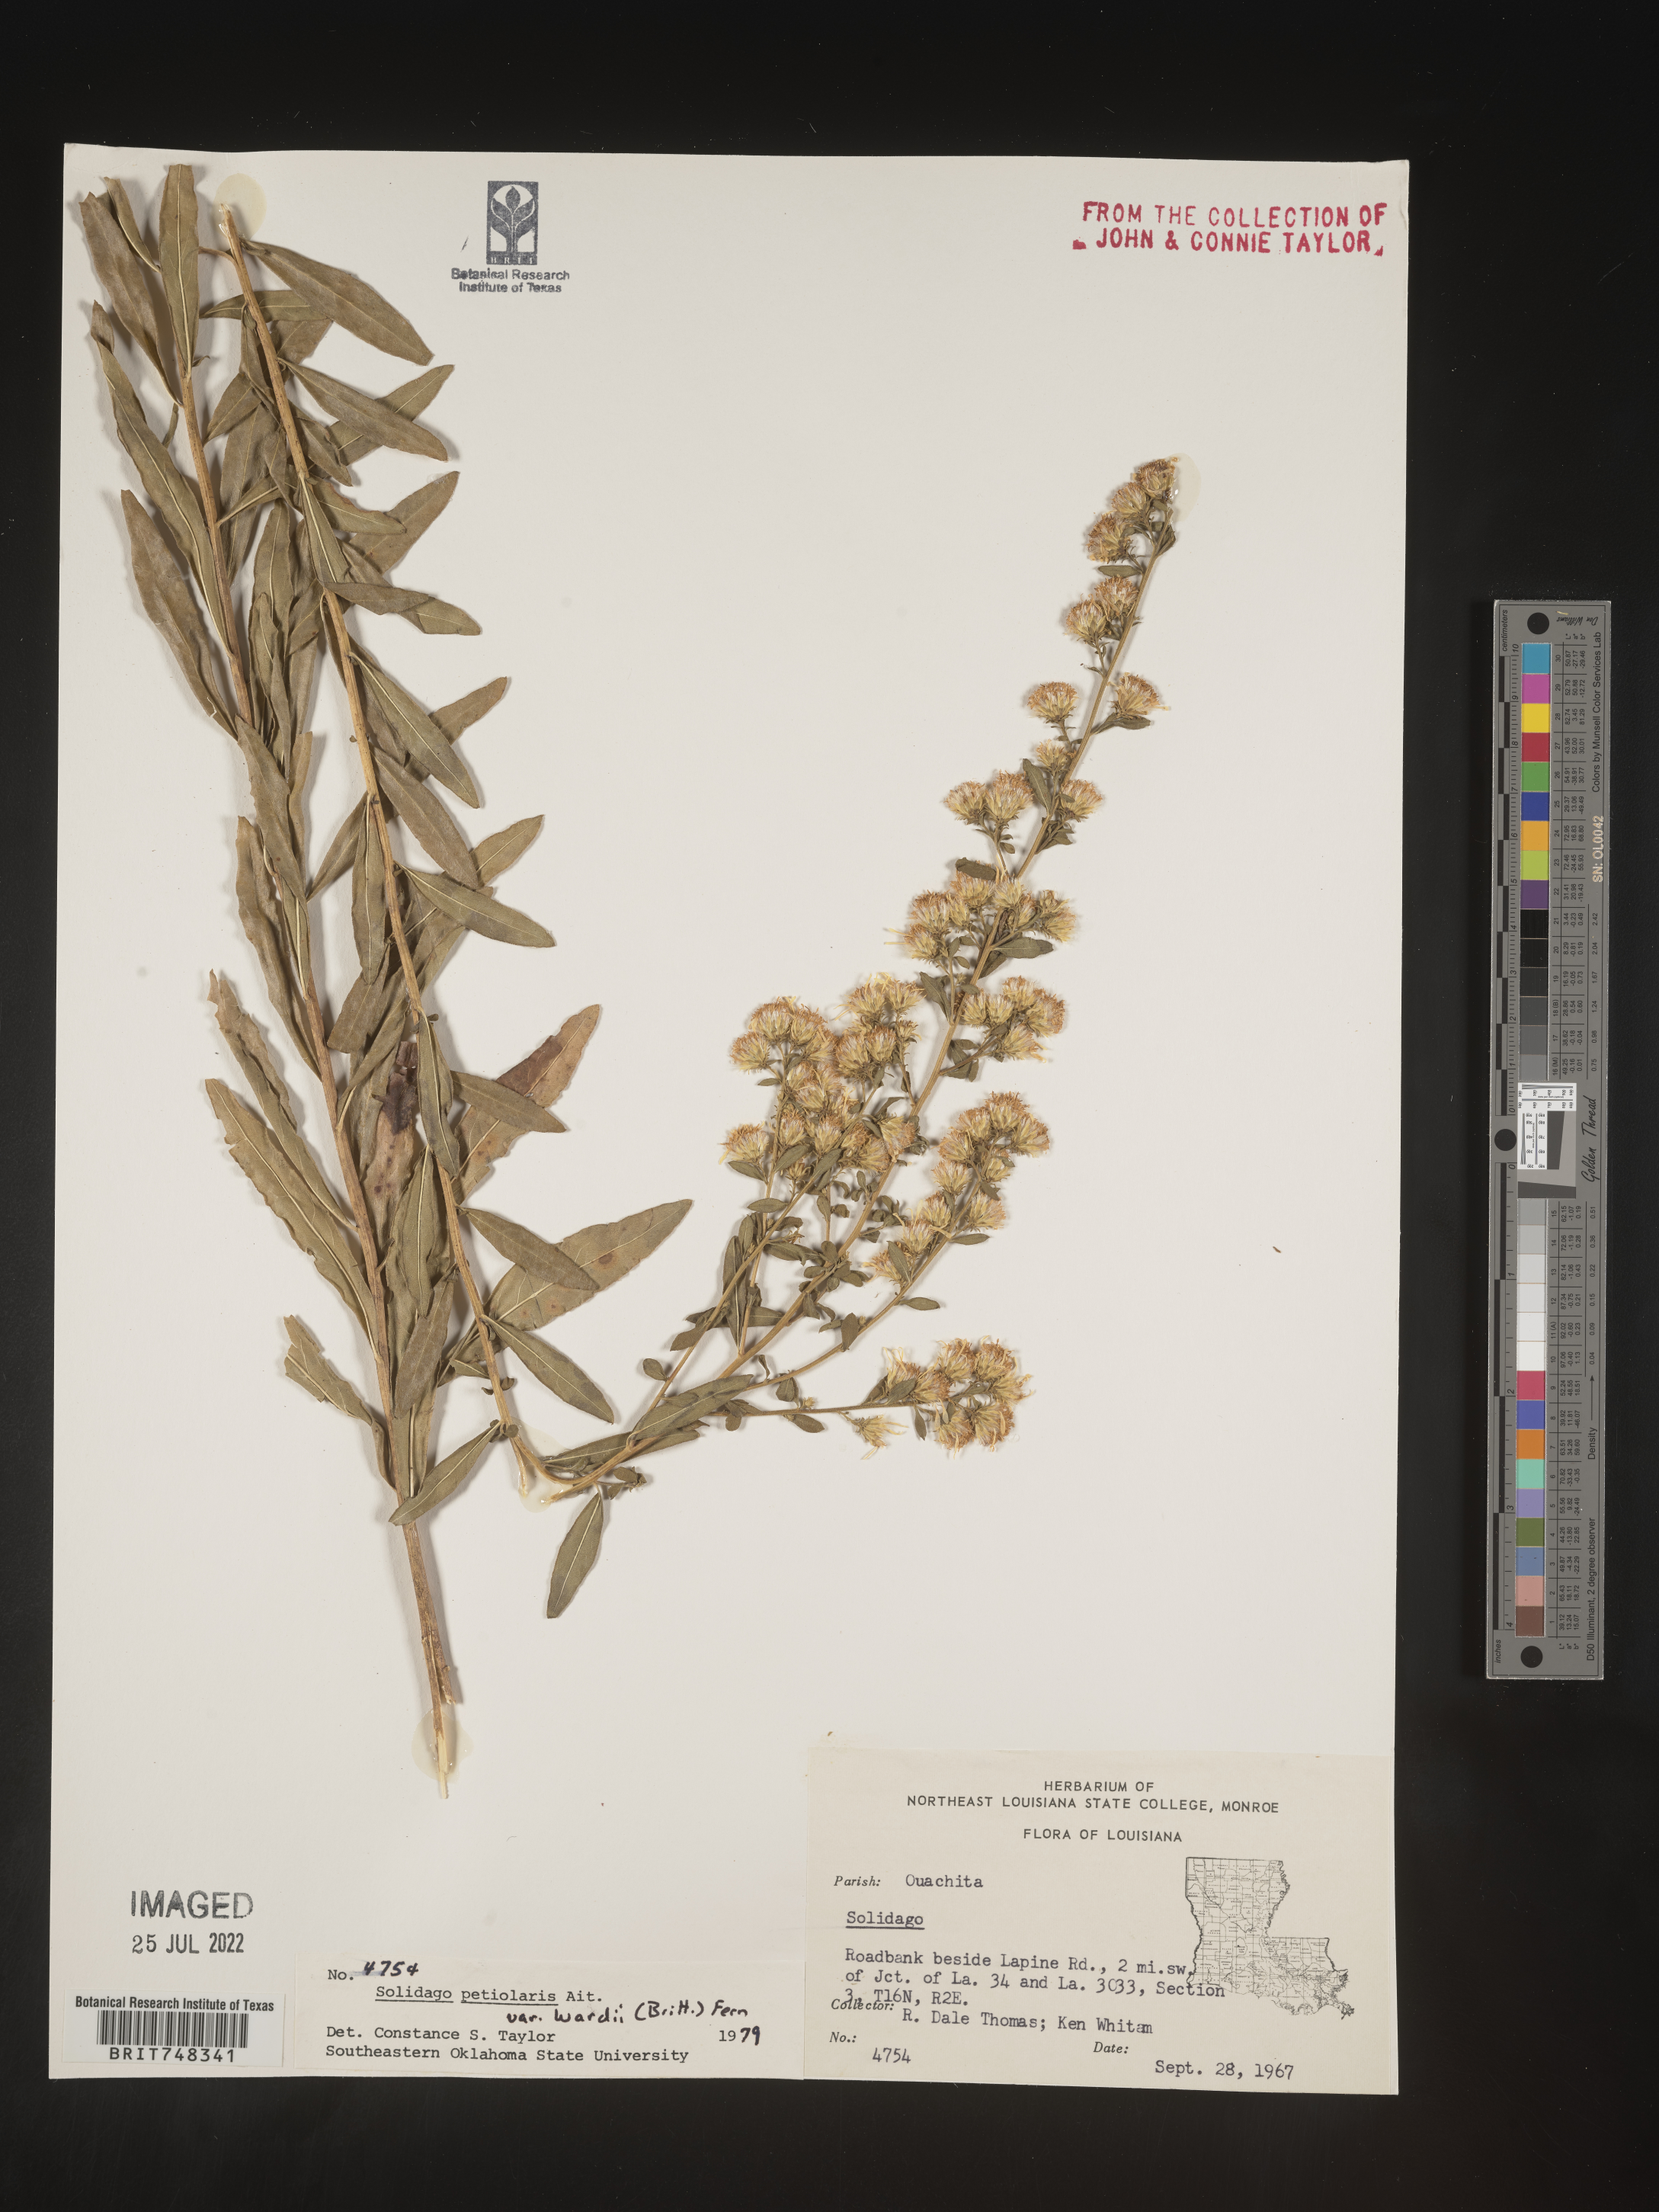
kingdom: Plantae
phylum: Tracheophyta
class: Magnoliopsida
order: Asterales
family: Asteraceae
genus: Solidago
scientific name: Solidago petiolaris
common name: Downy ragged goldenrod
